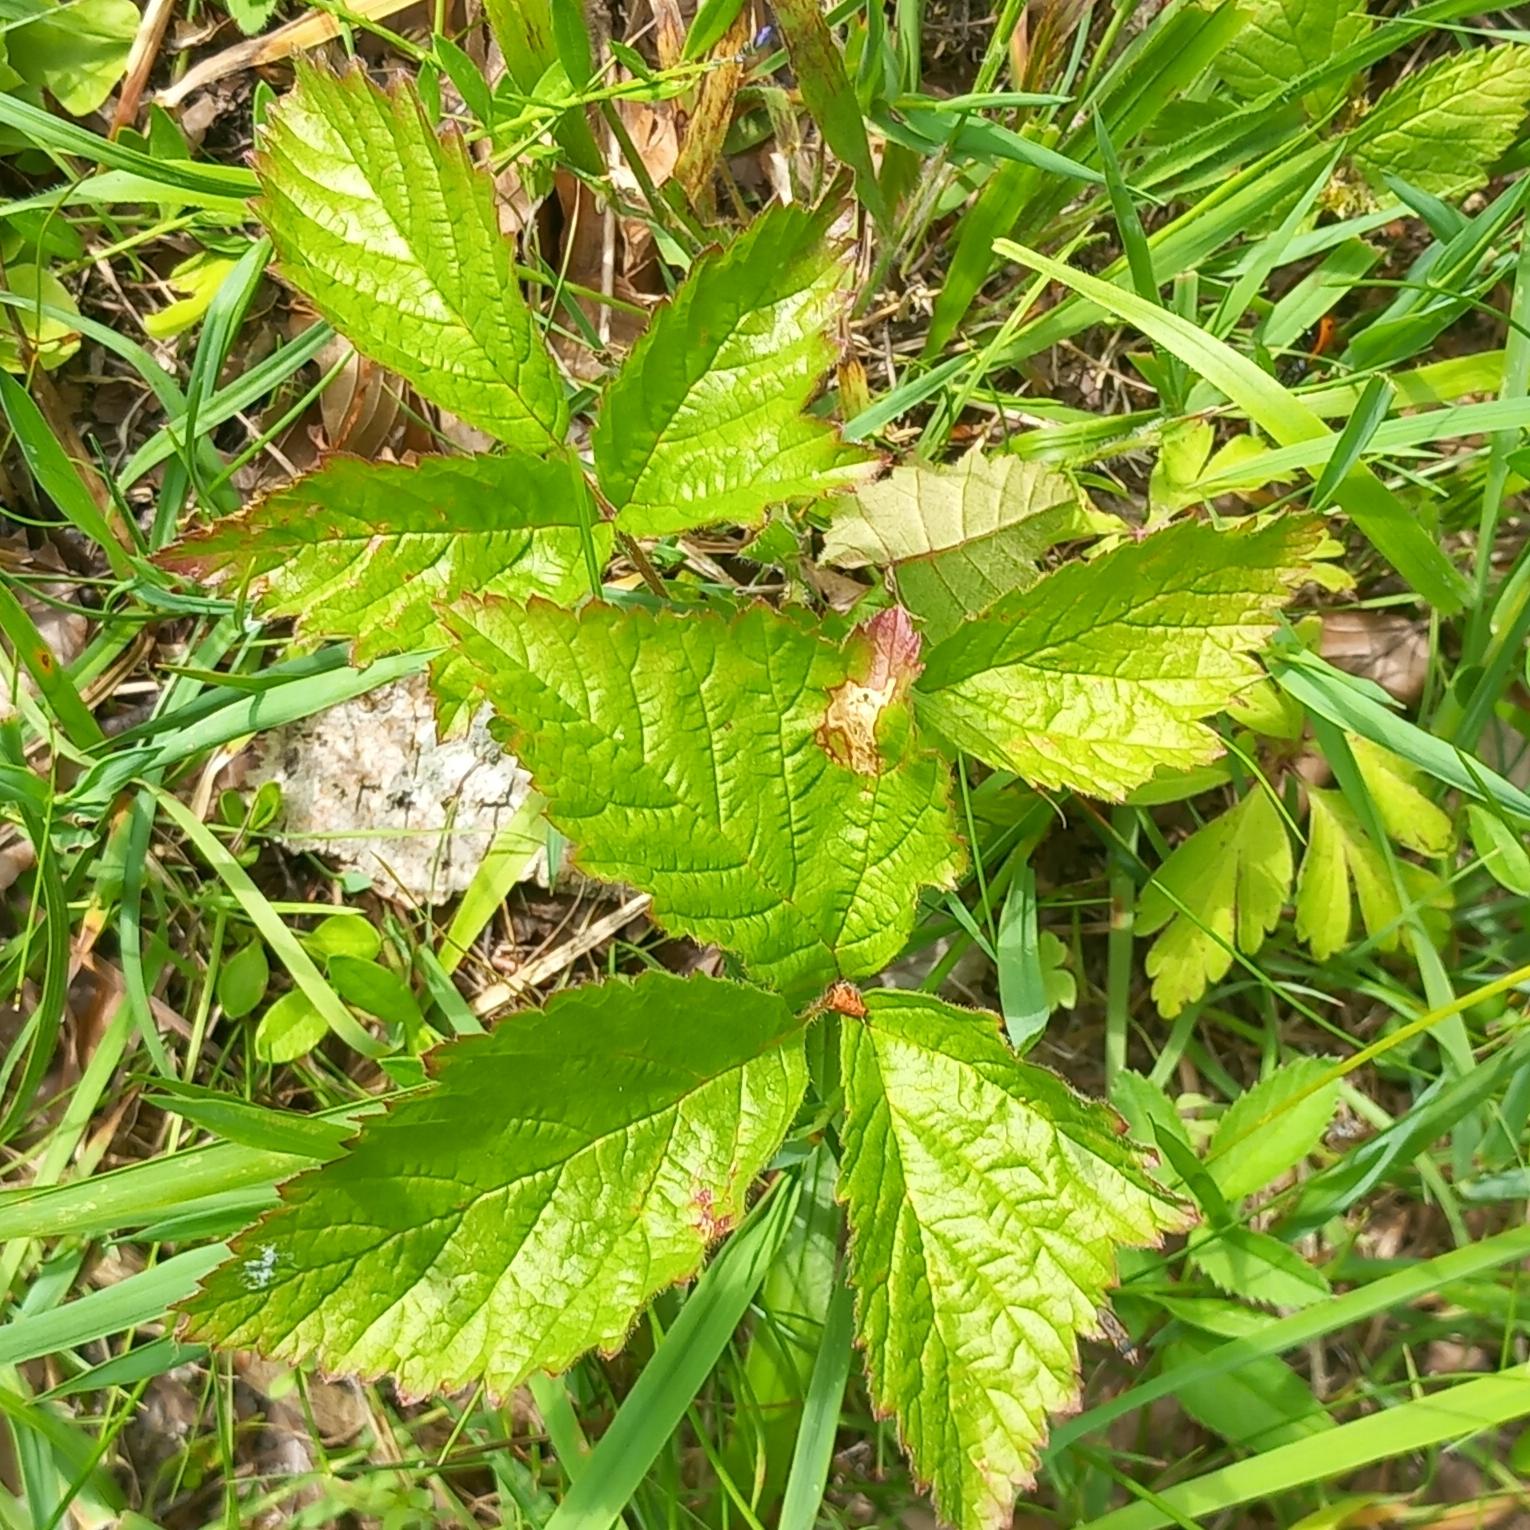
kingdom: Plantae
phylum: Tracheophyta
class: Magnoliopsida
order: Rosales
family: Rosaceae
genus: Rubus
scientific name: Rubus saxatilis
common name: Fruebær
